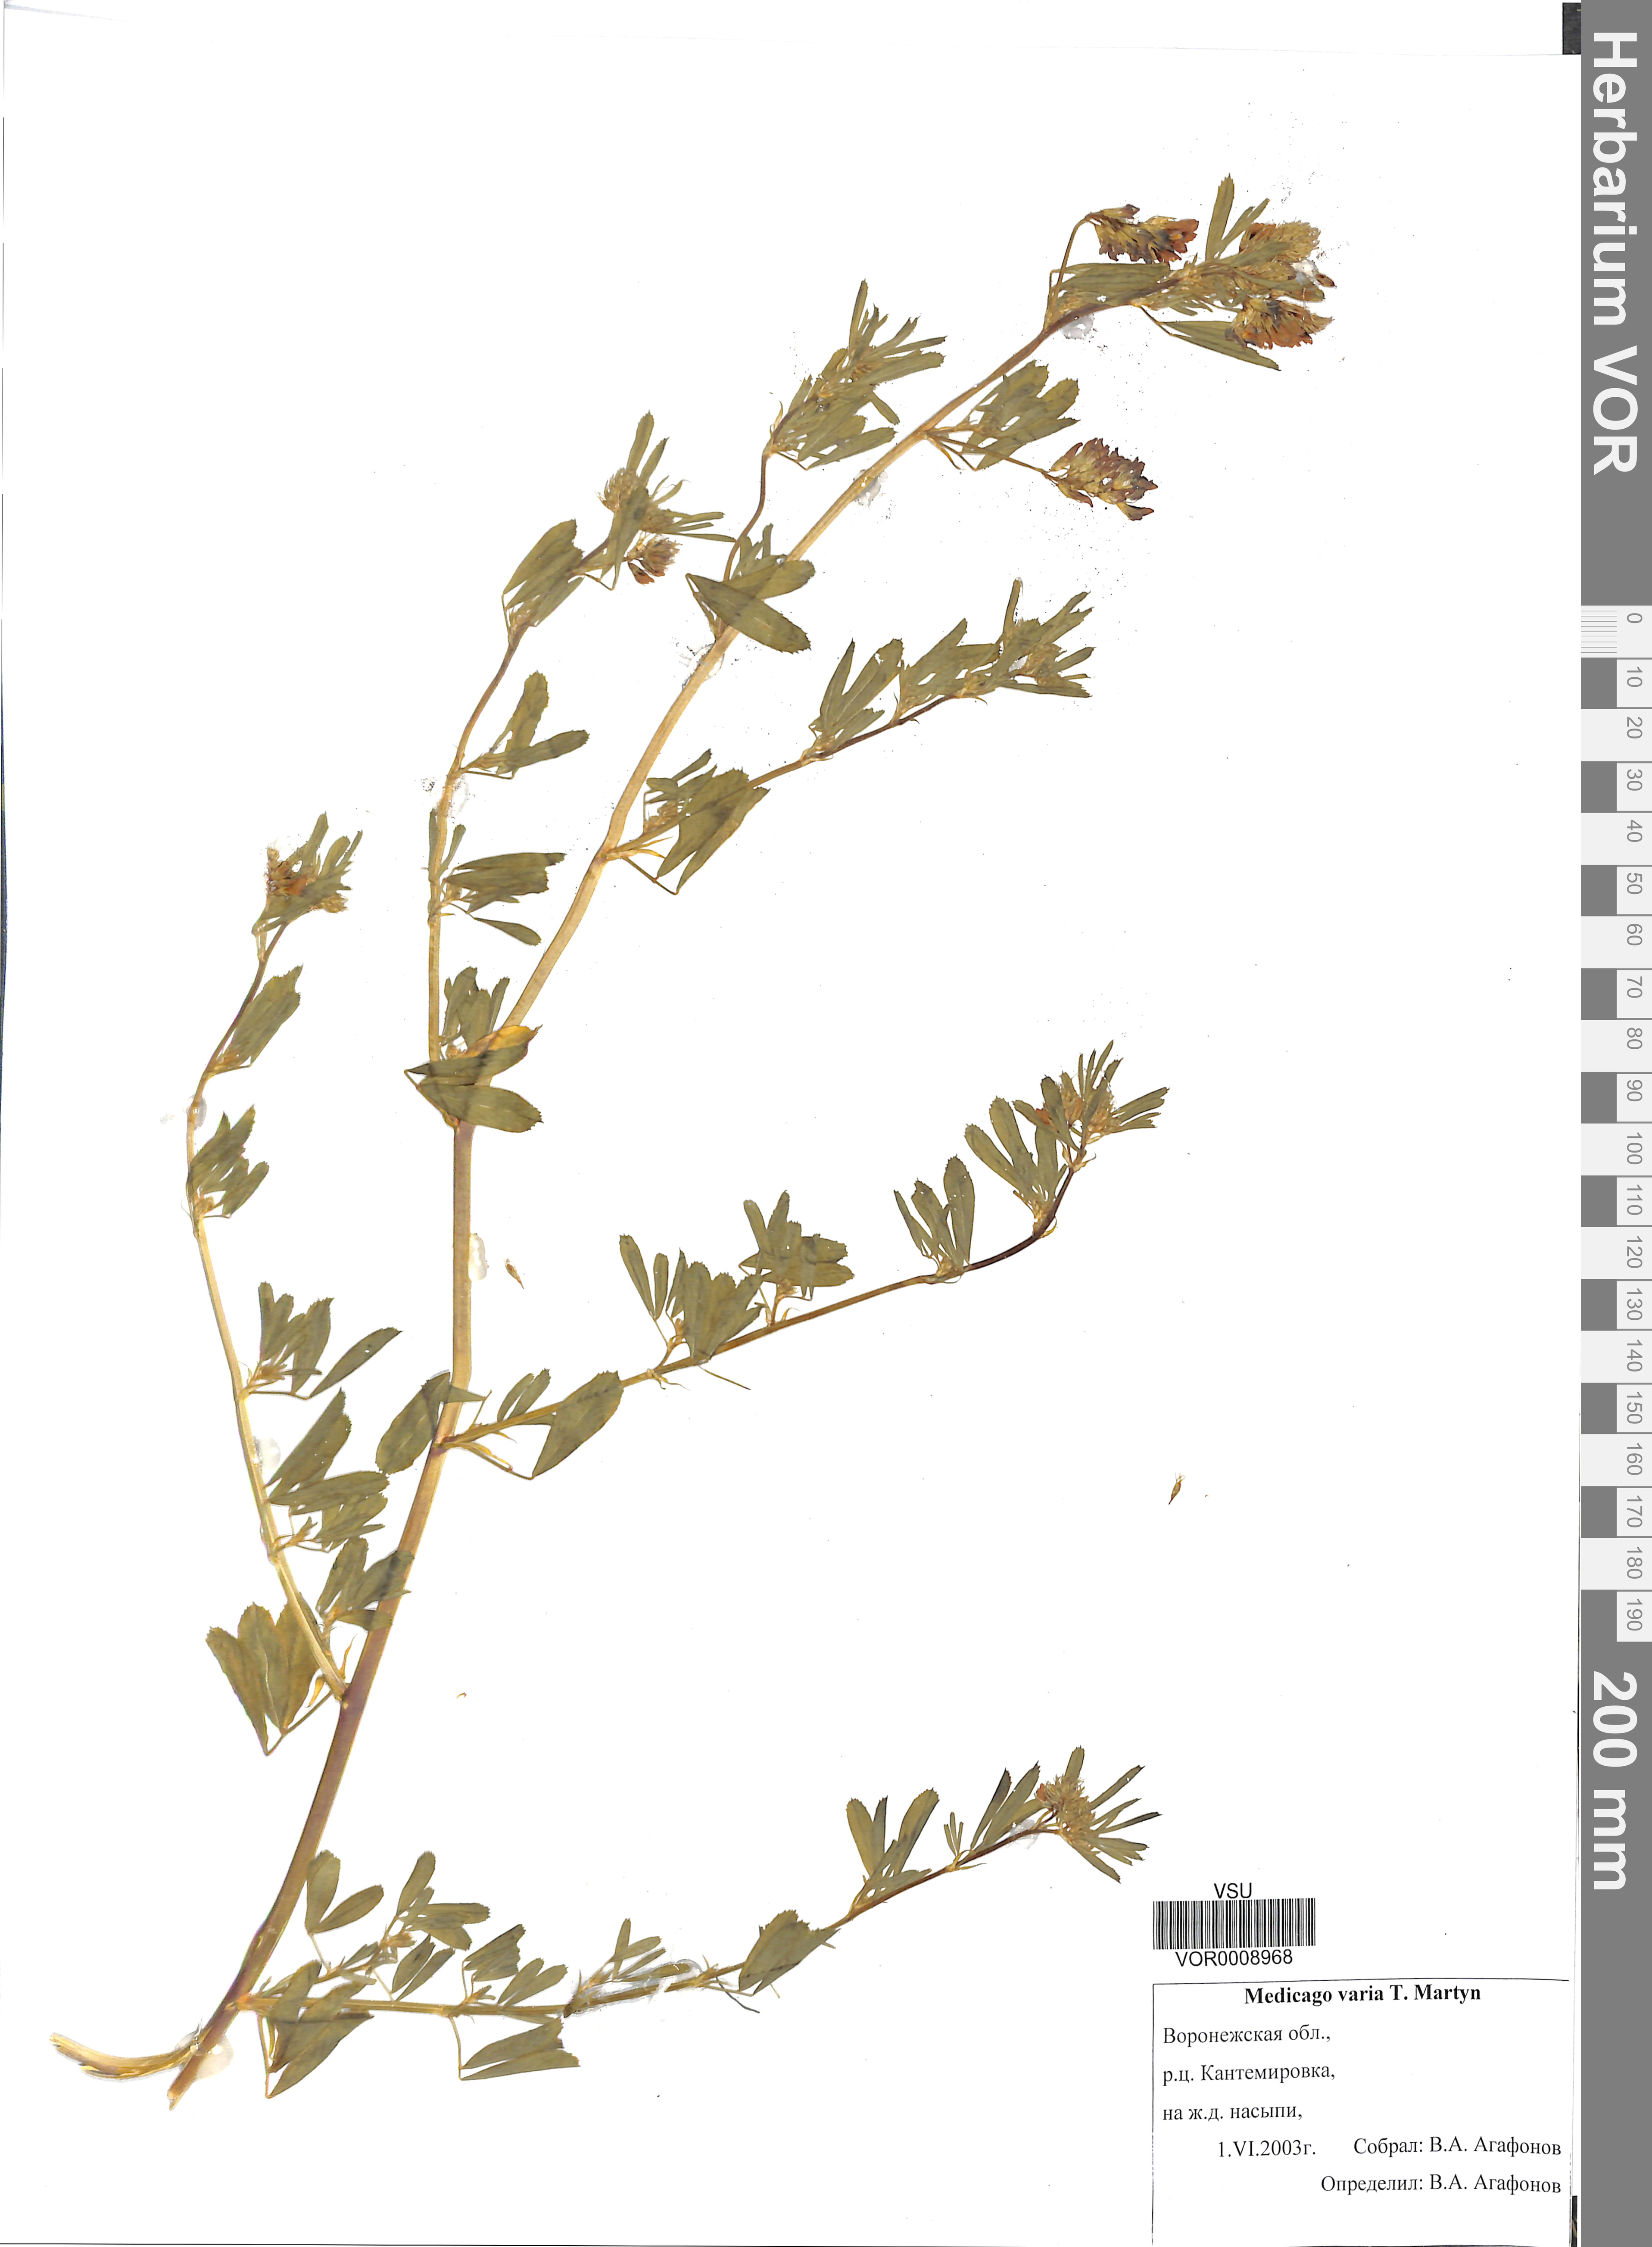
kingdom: Plantae
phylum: Tracheophyta
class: Magnoliopsida
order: Fabales
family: Fabaceae
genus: Medicago
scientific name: Medicago varia
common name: Sand lucerne
